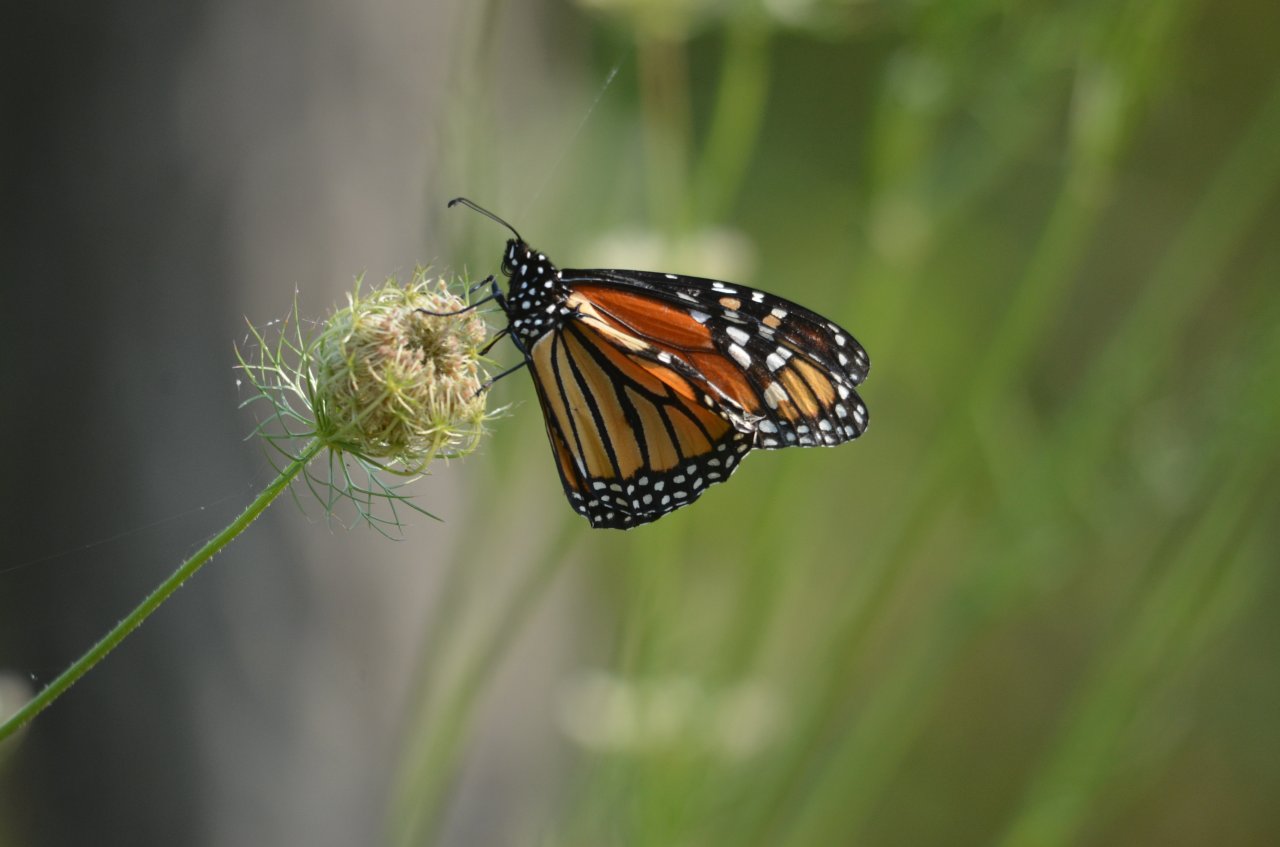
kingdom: Animalia
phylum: Arthropoda
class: Insecta
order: Lepidoptera
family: Nymphalidae
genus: Danaus
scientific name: Danaus plexippus
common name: Monarch
